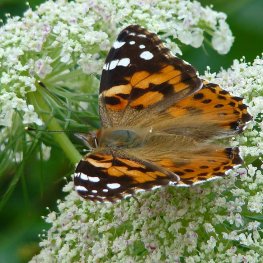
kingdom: Animalia
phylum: Arthropoda
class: Insecta
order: Lepidoptera
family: Nymphalidae
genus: Vanessa
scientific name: Vanessa cardui
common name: Painted Lady
